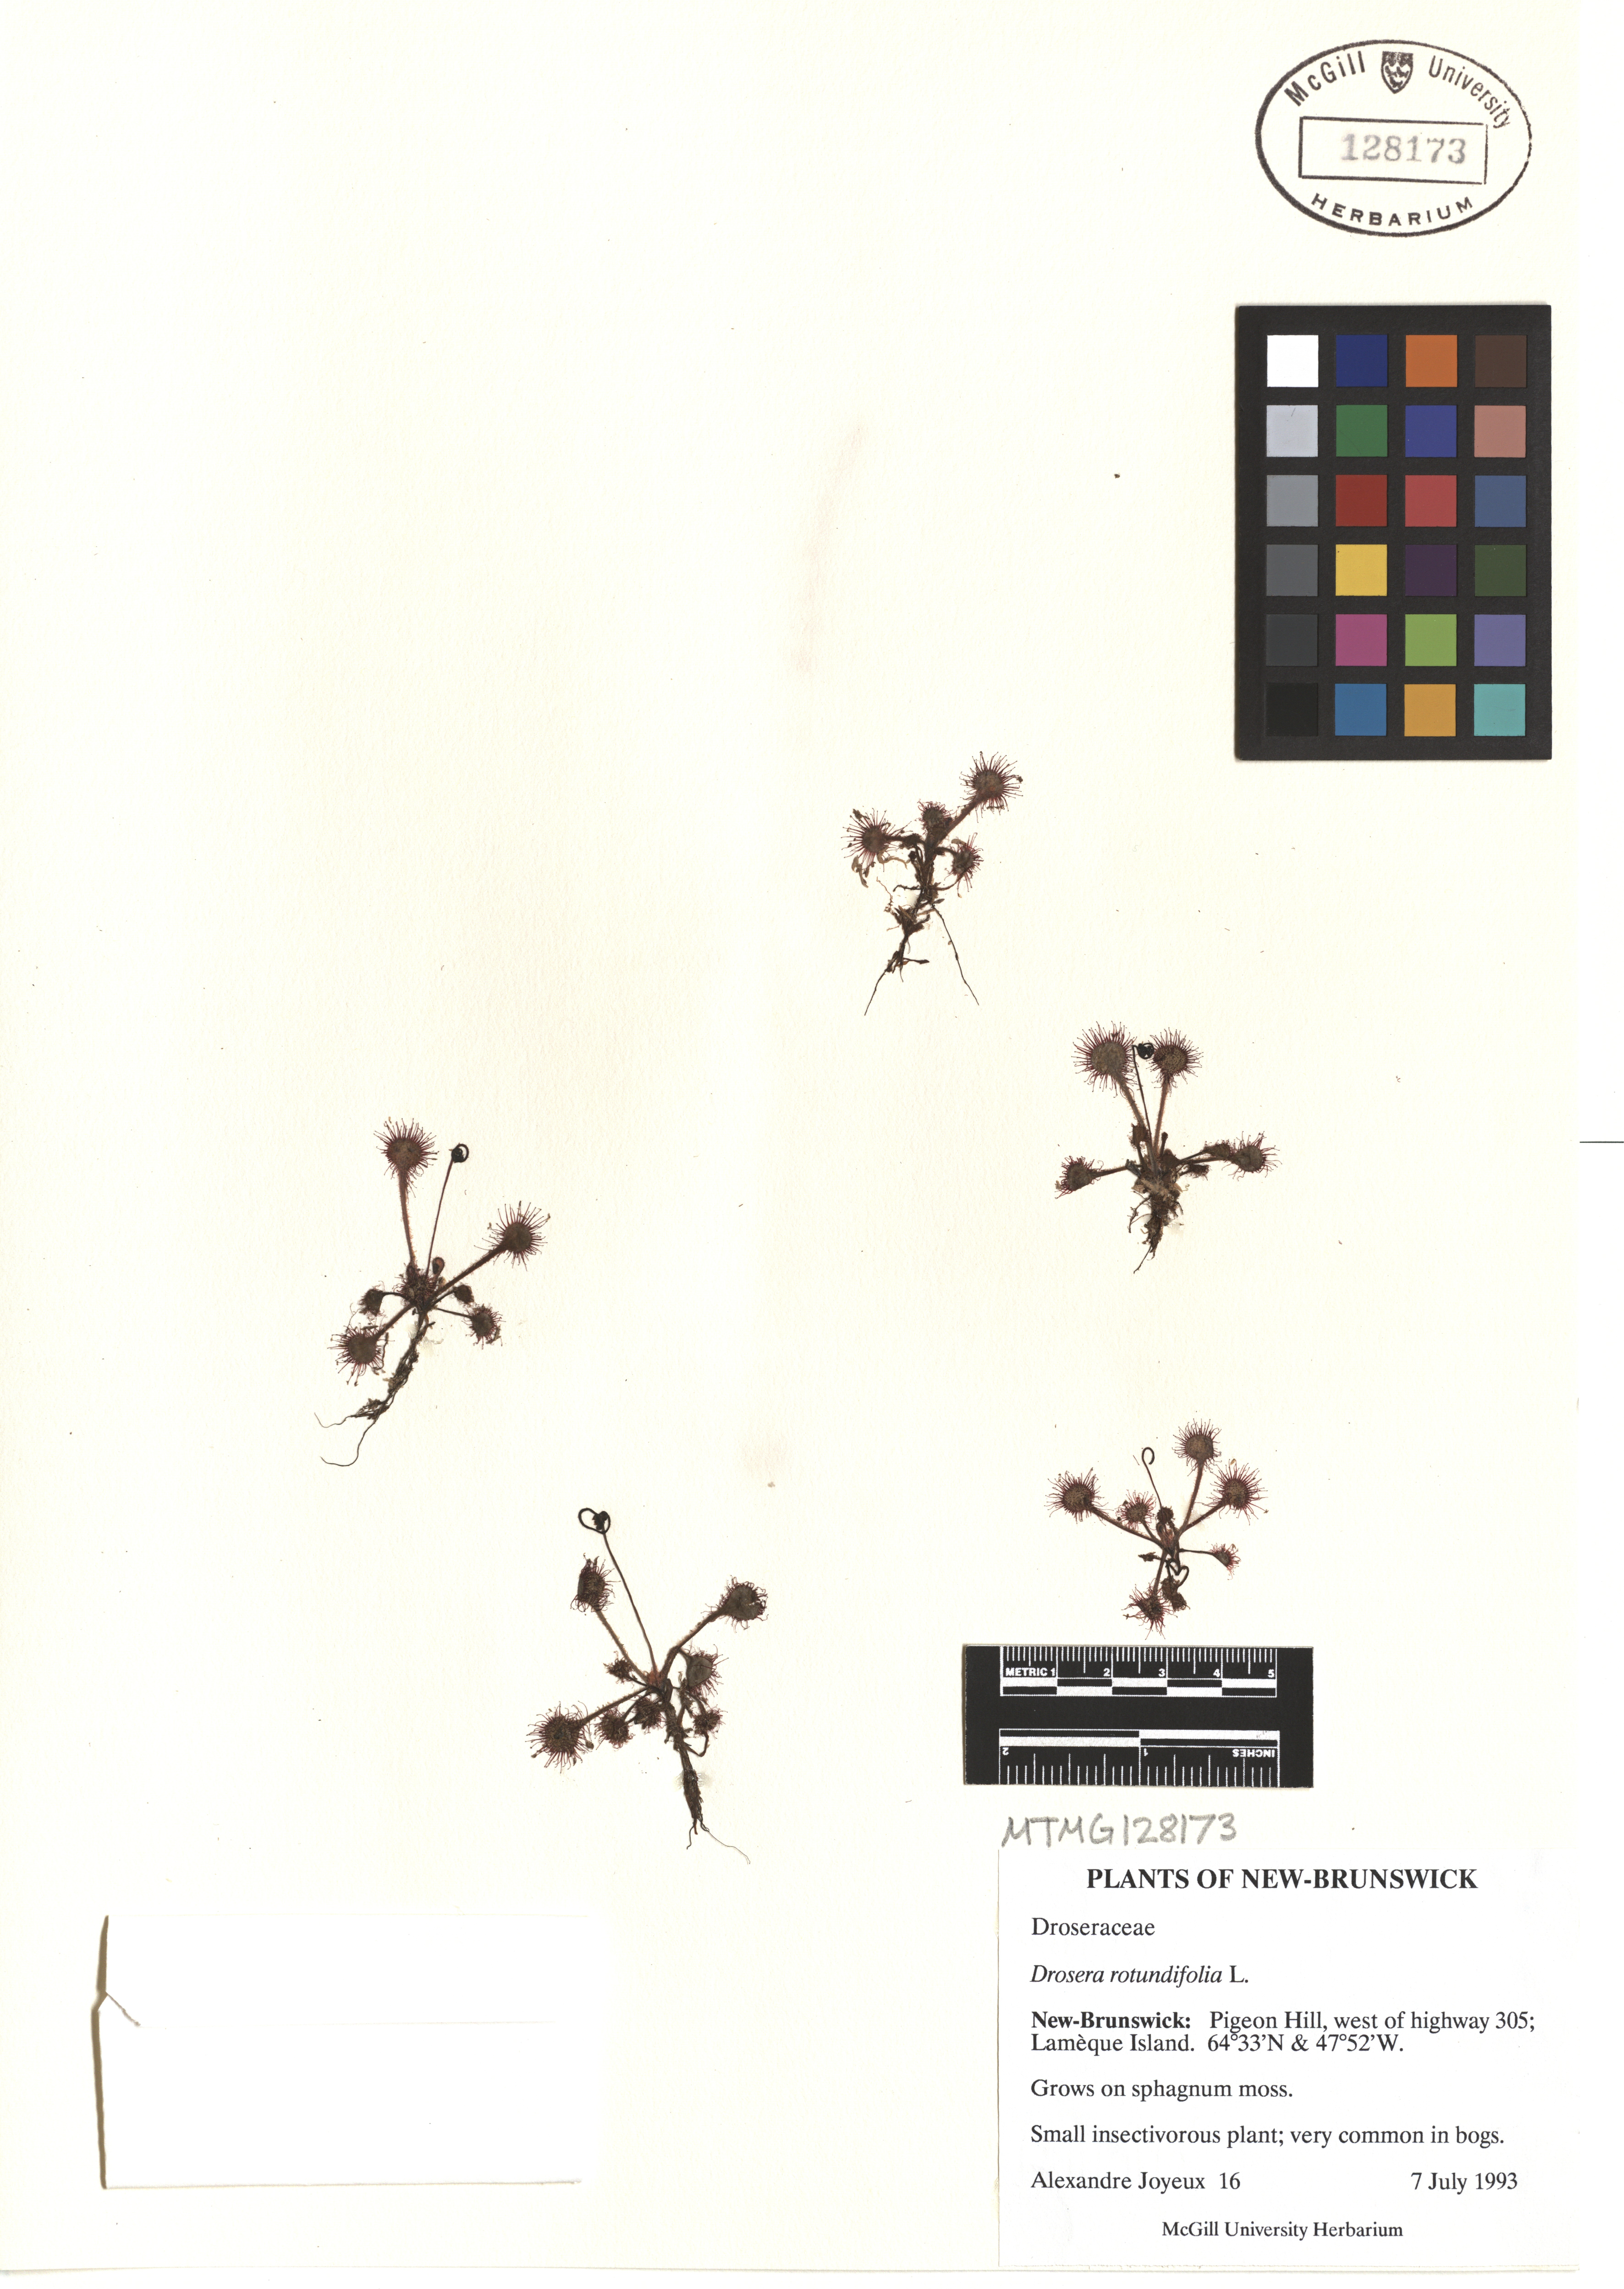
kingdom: Plantae
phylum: Tracheophyta
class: Magnoliopsida
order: Caryophyllales
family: Droseraceae
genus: Drosera
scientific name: Drosera rotundifolia
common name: Round-leaved sundew
